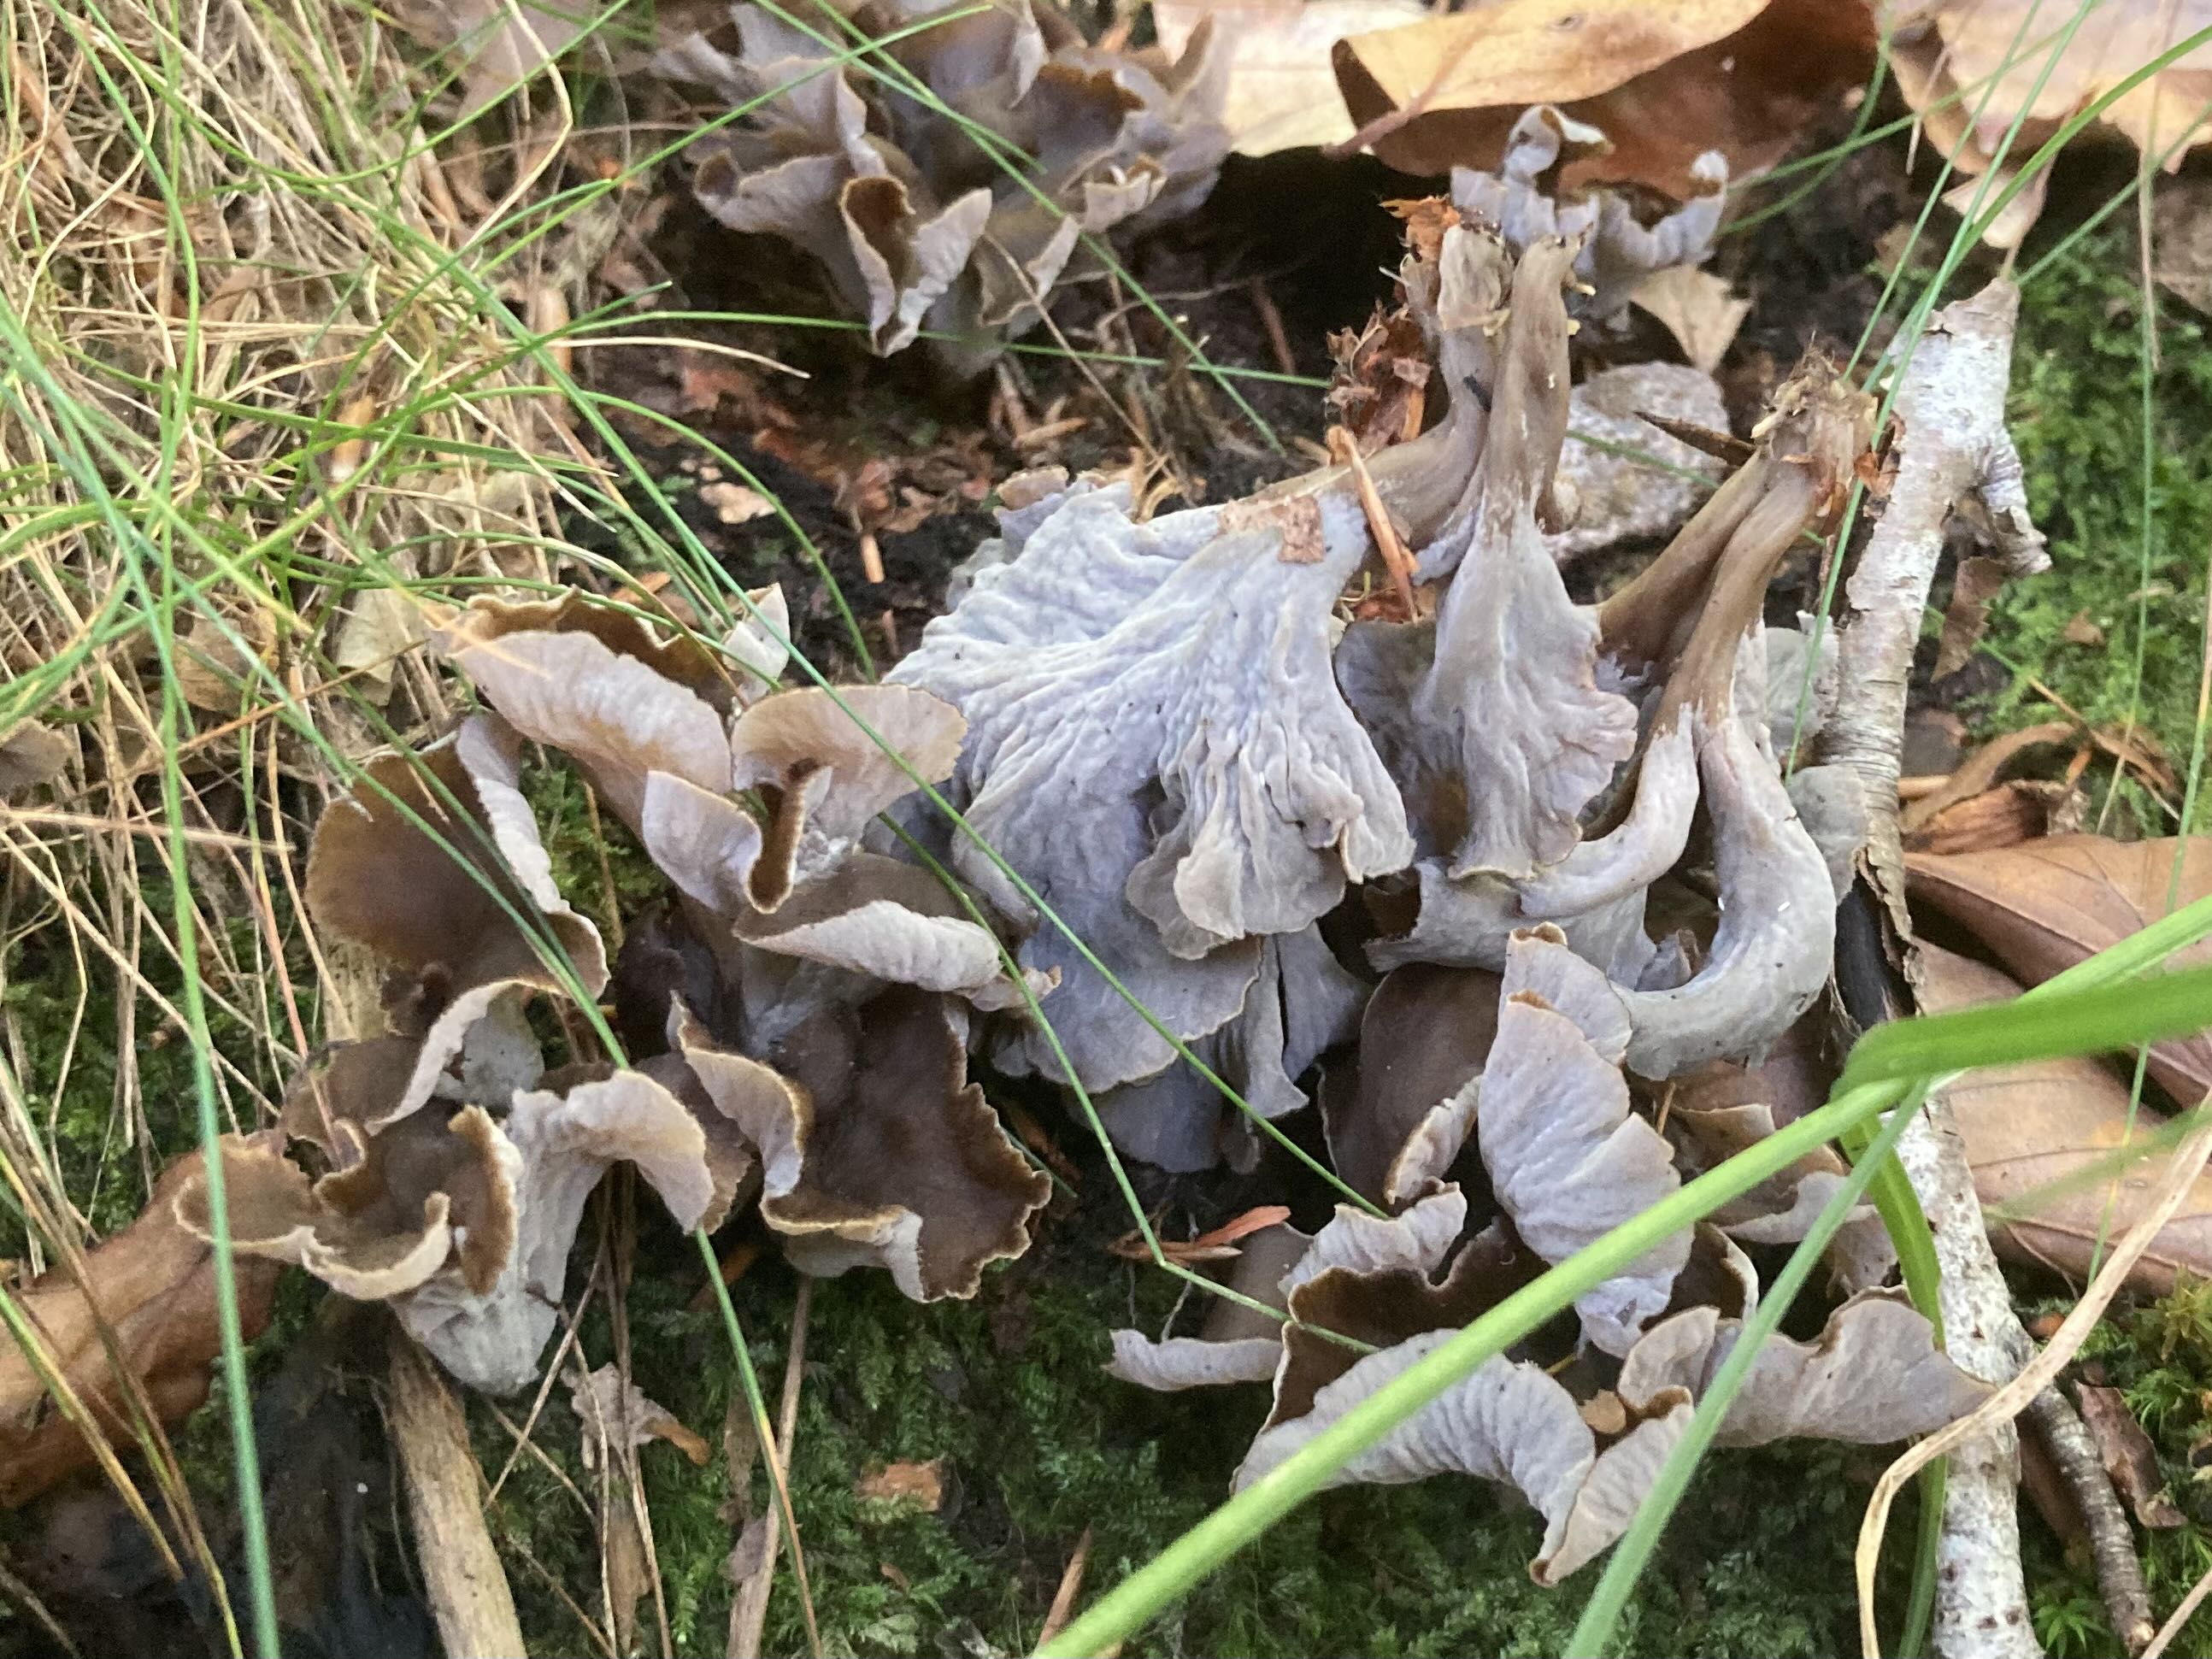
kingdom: Fungi
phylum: Basidiomycota
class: Agaricomycetes
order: Cantharellales
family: Hydnaceae
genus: Craterellus
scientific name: Craterellus undulatus
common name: liden kantarel
